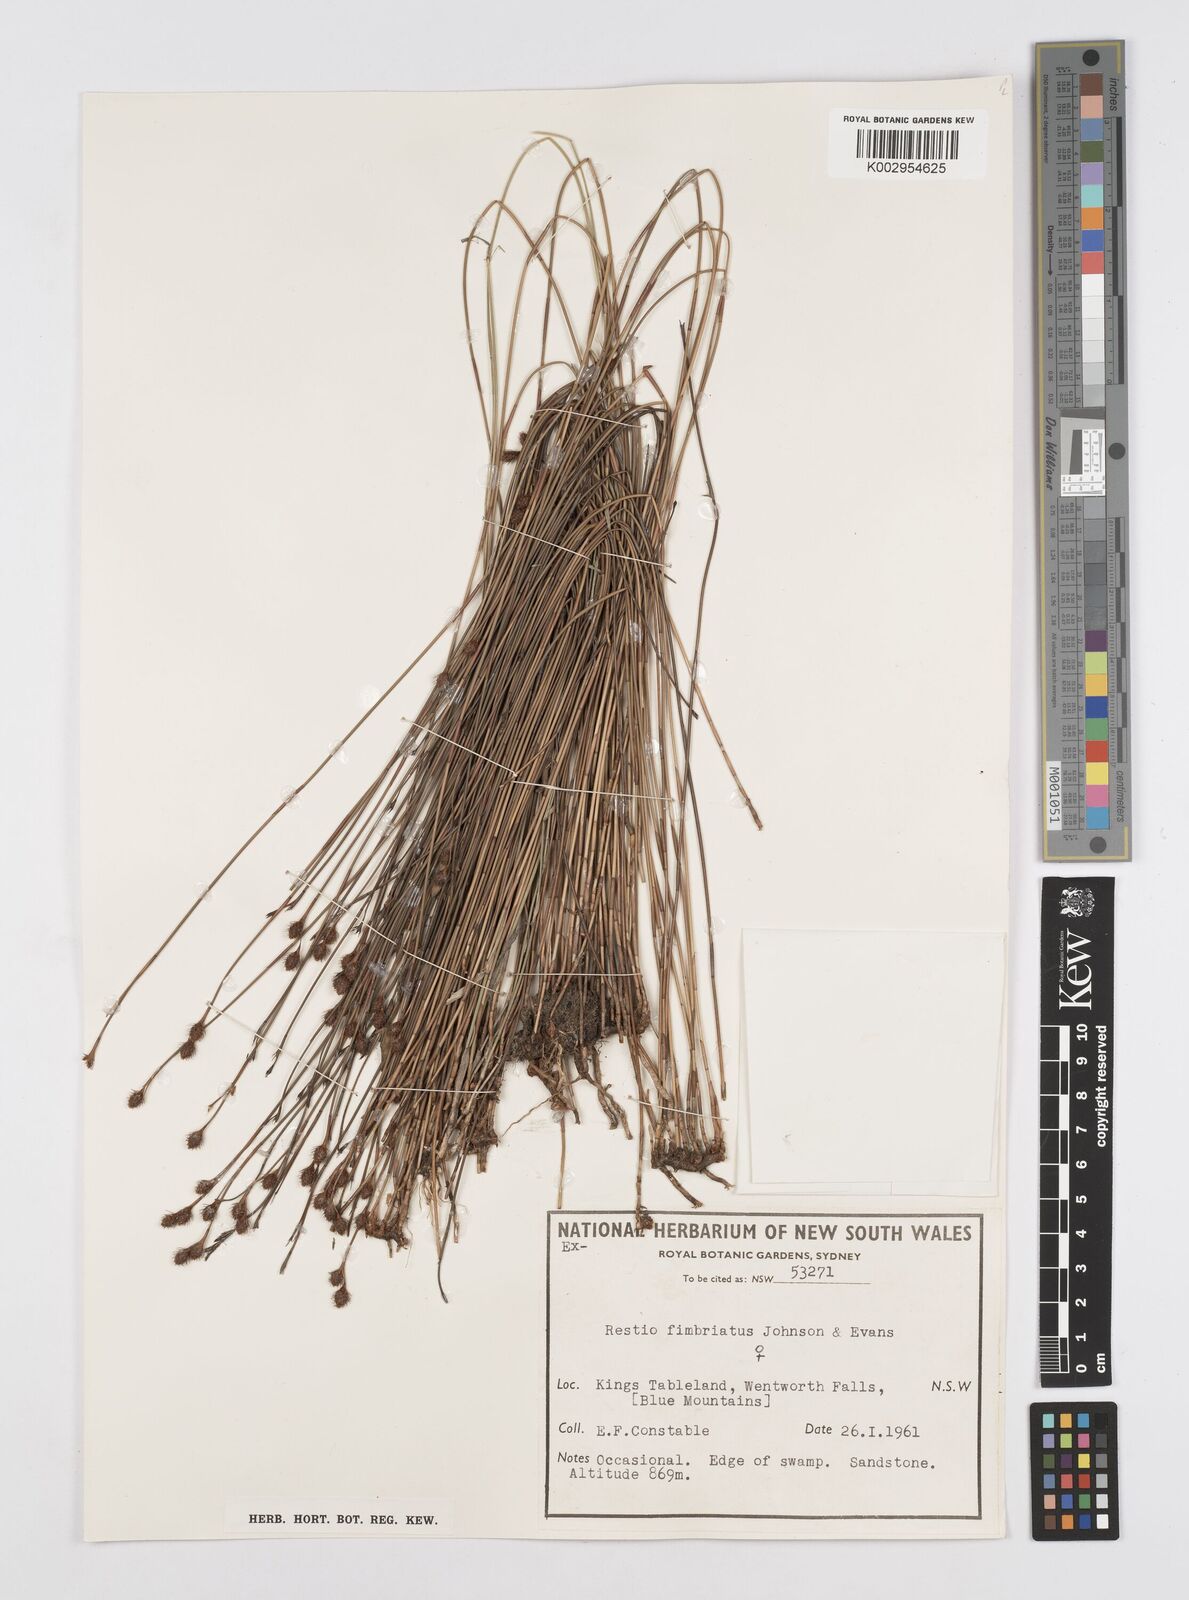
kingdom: Plantae
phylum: Tracheophyta
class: Liliopsida
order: Poales
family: Restionaceae
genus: Baloskion
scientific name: Baloskion fimbriatum
